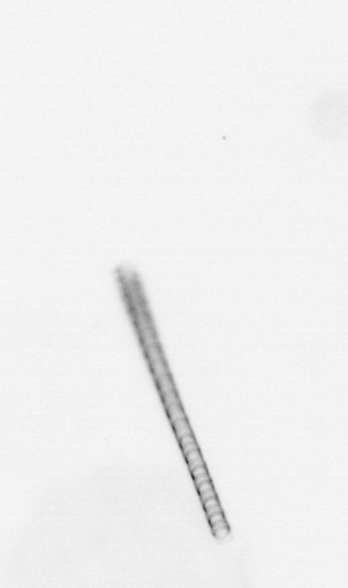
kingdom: Chromista
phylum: Ochrophyta
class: Bacillariophyceae
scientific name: Bacillariophyceae
